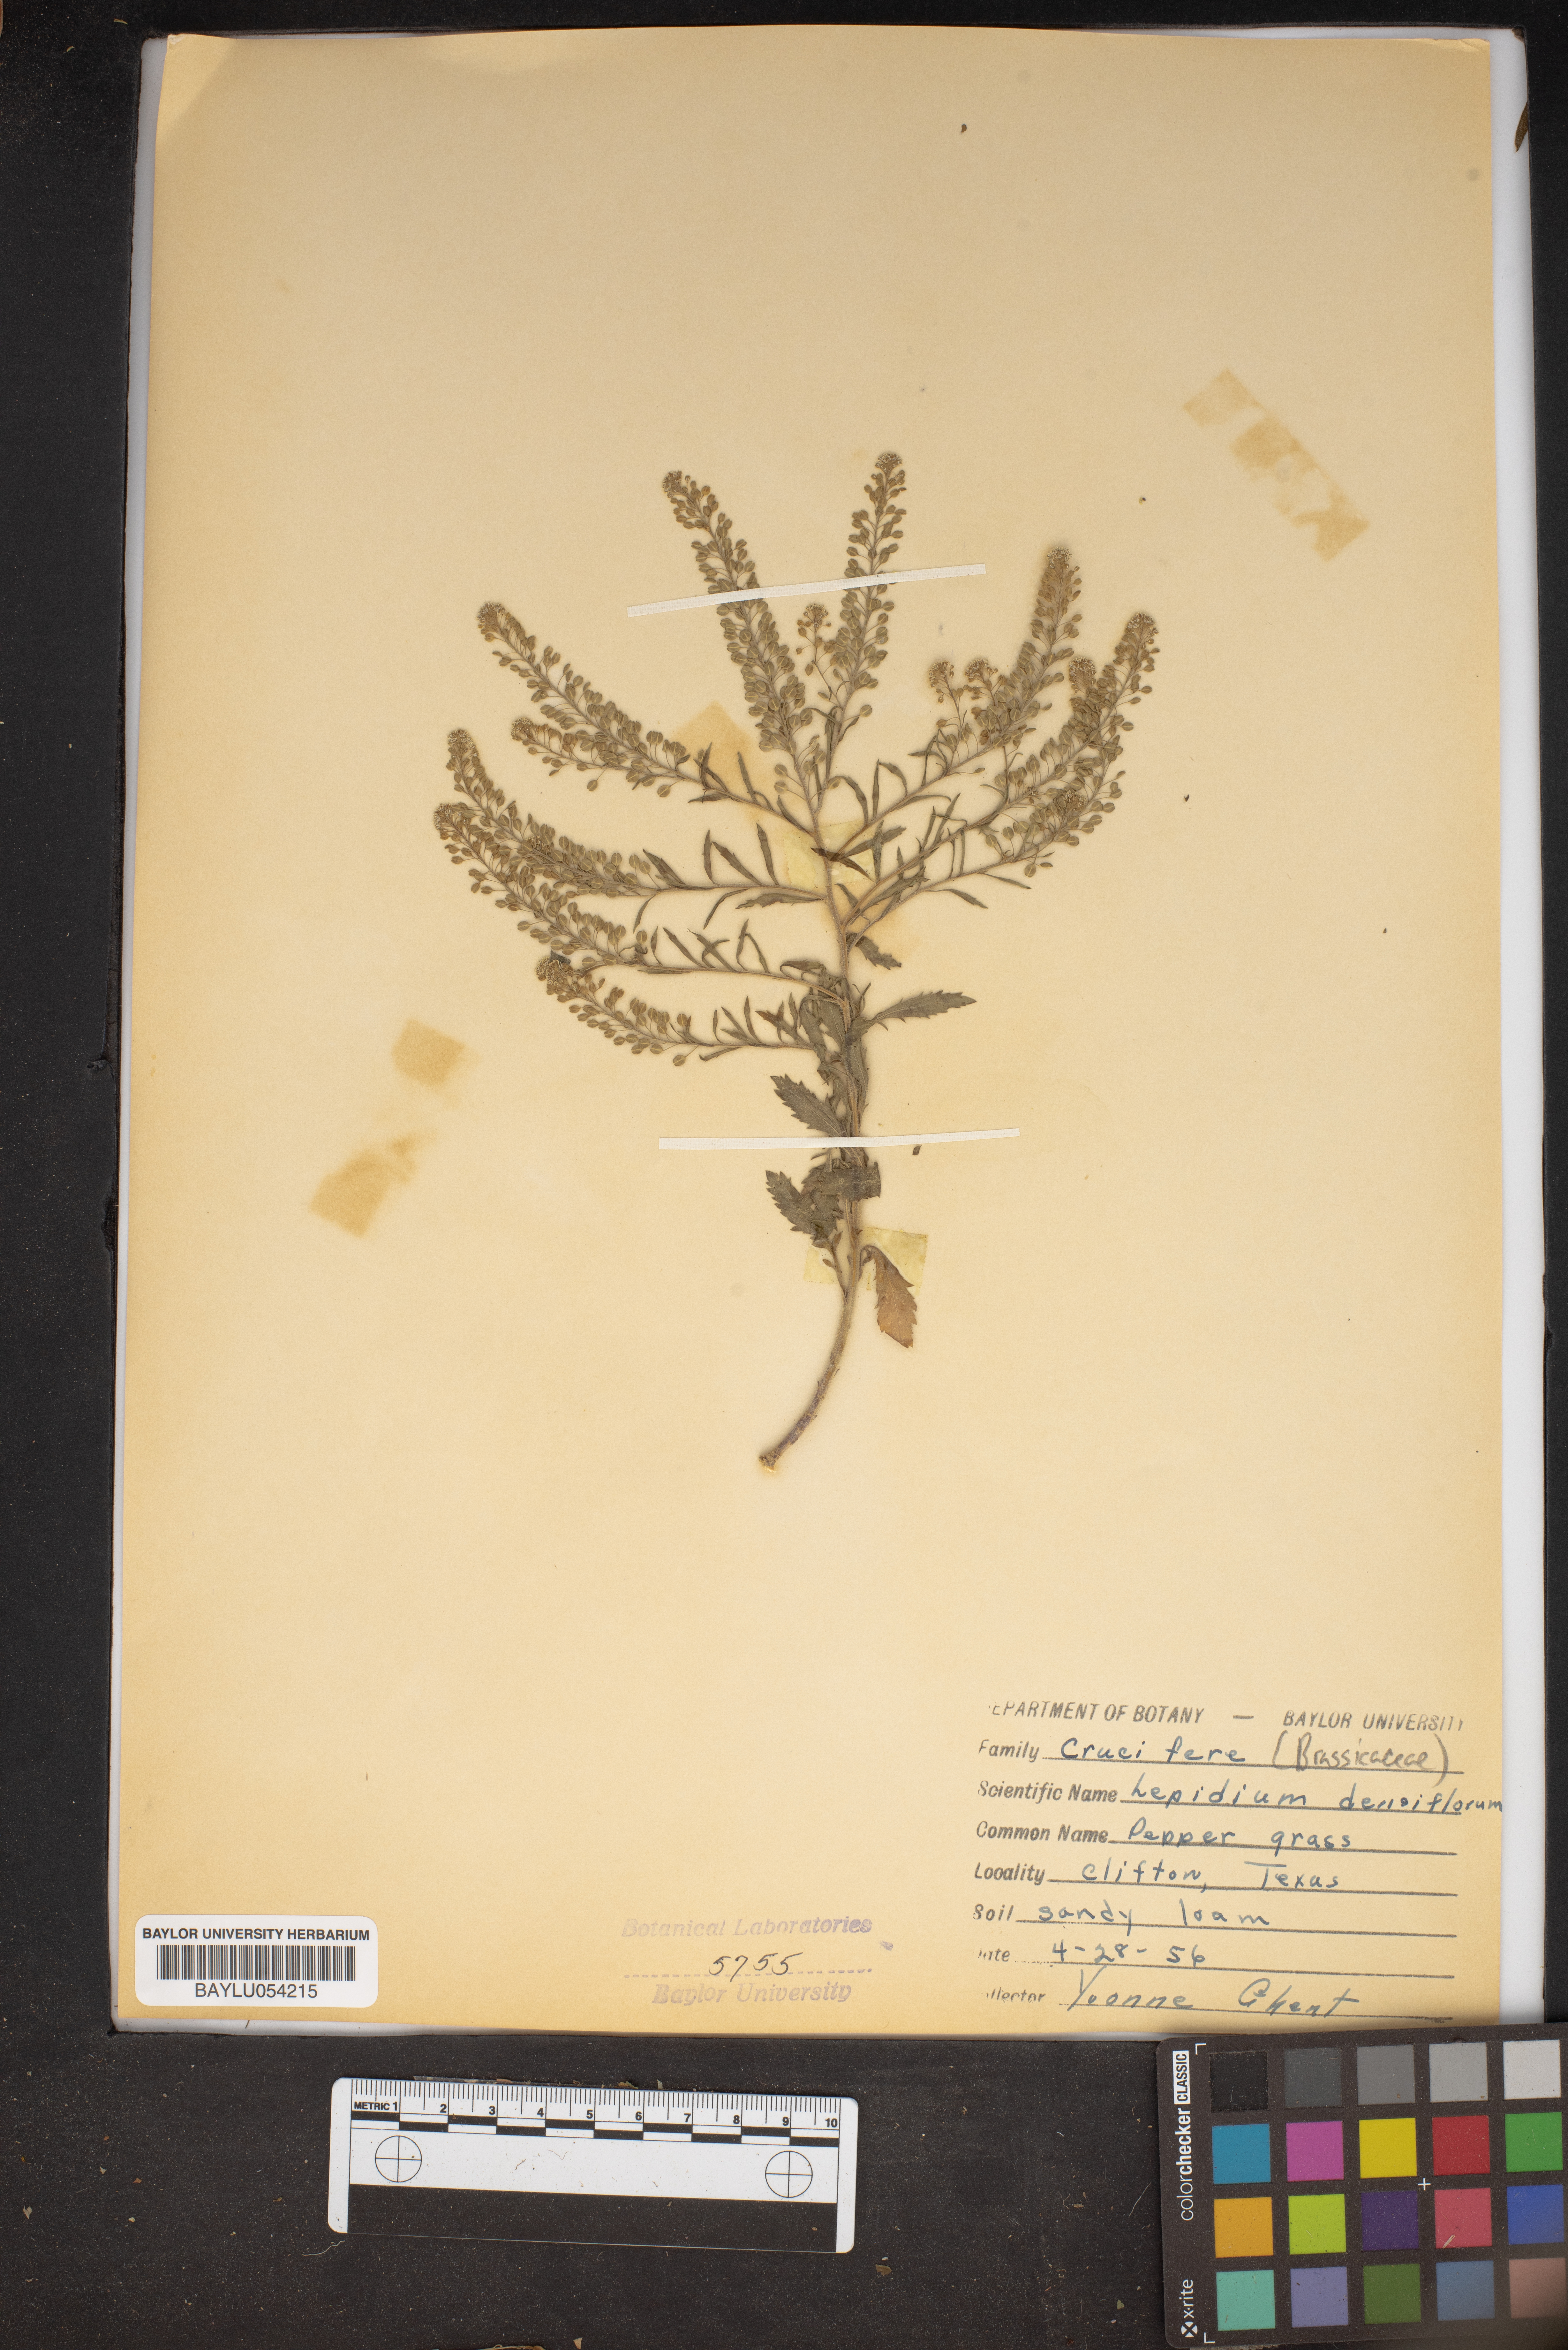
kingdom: Plantae
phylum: Tracheophyta
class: Magnoliopsida
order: Brassicales
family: Brassicaceae
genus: Lepidium
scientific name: Lepidium densiflorum
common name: Miner's pepperwort
